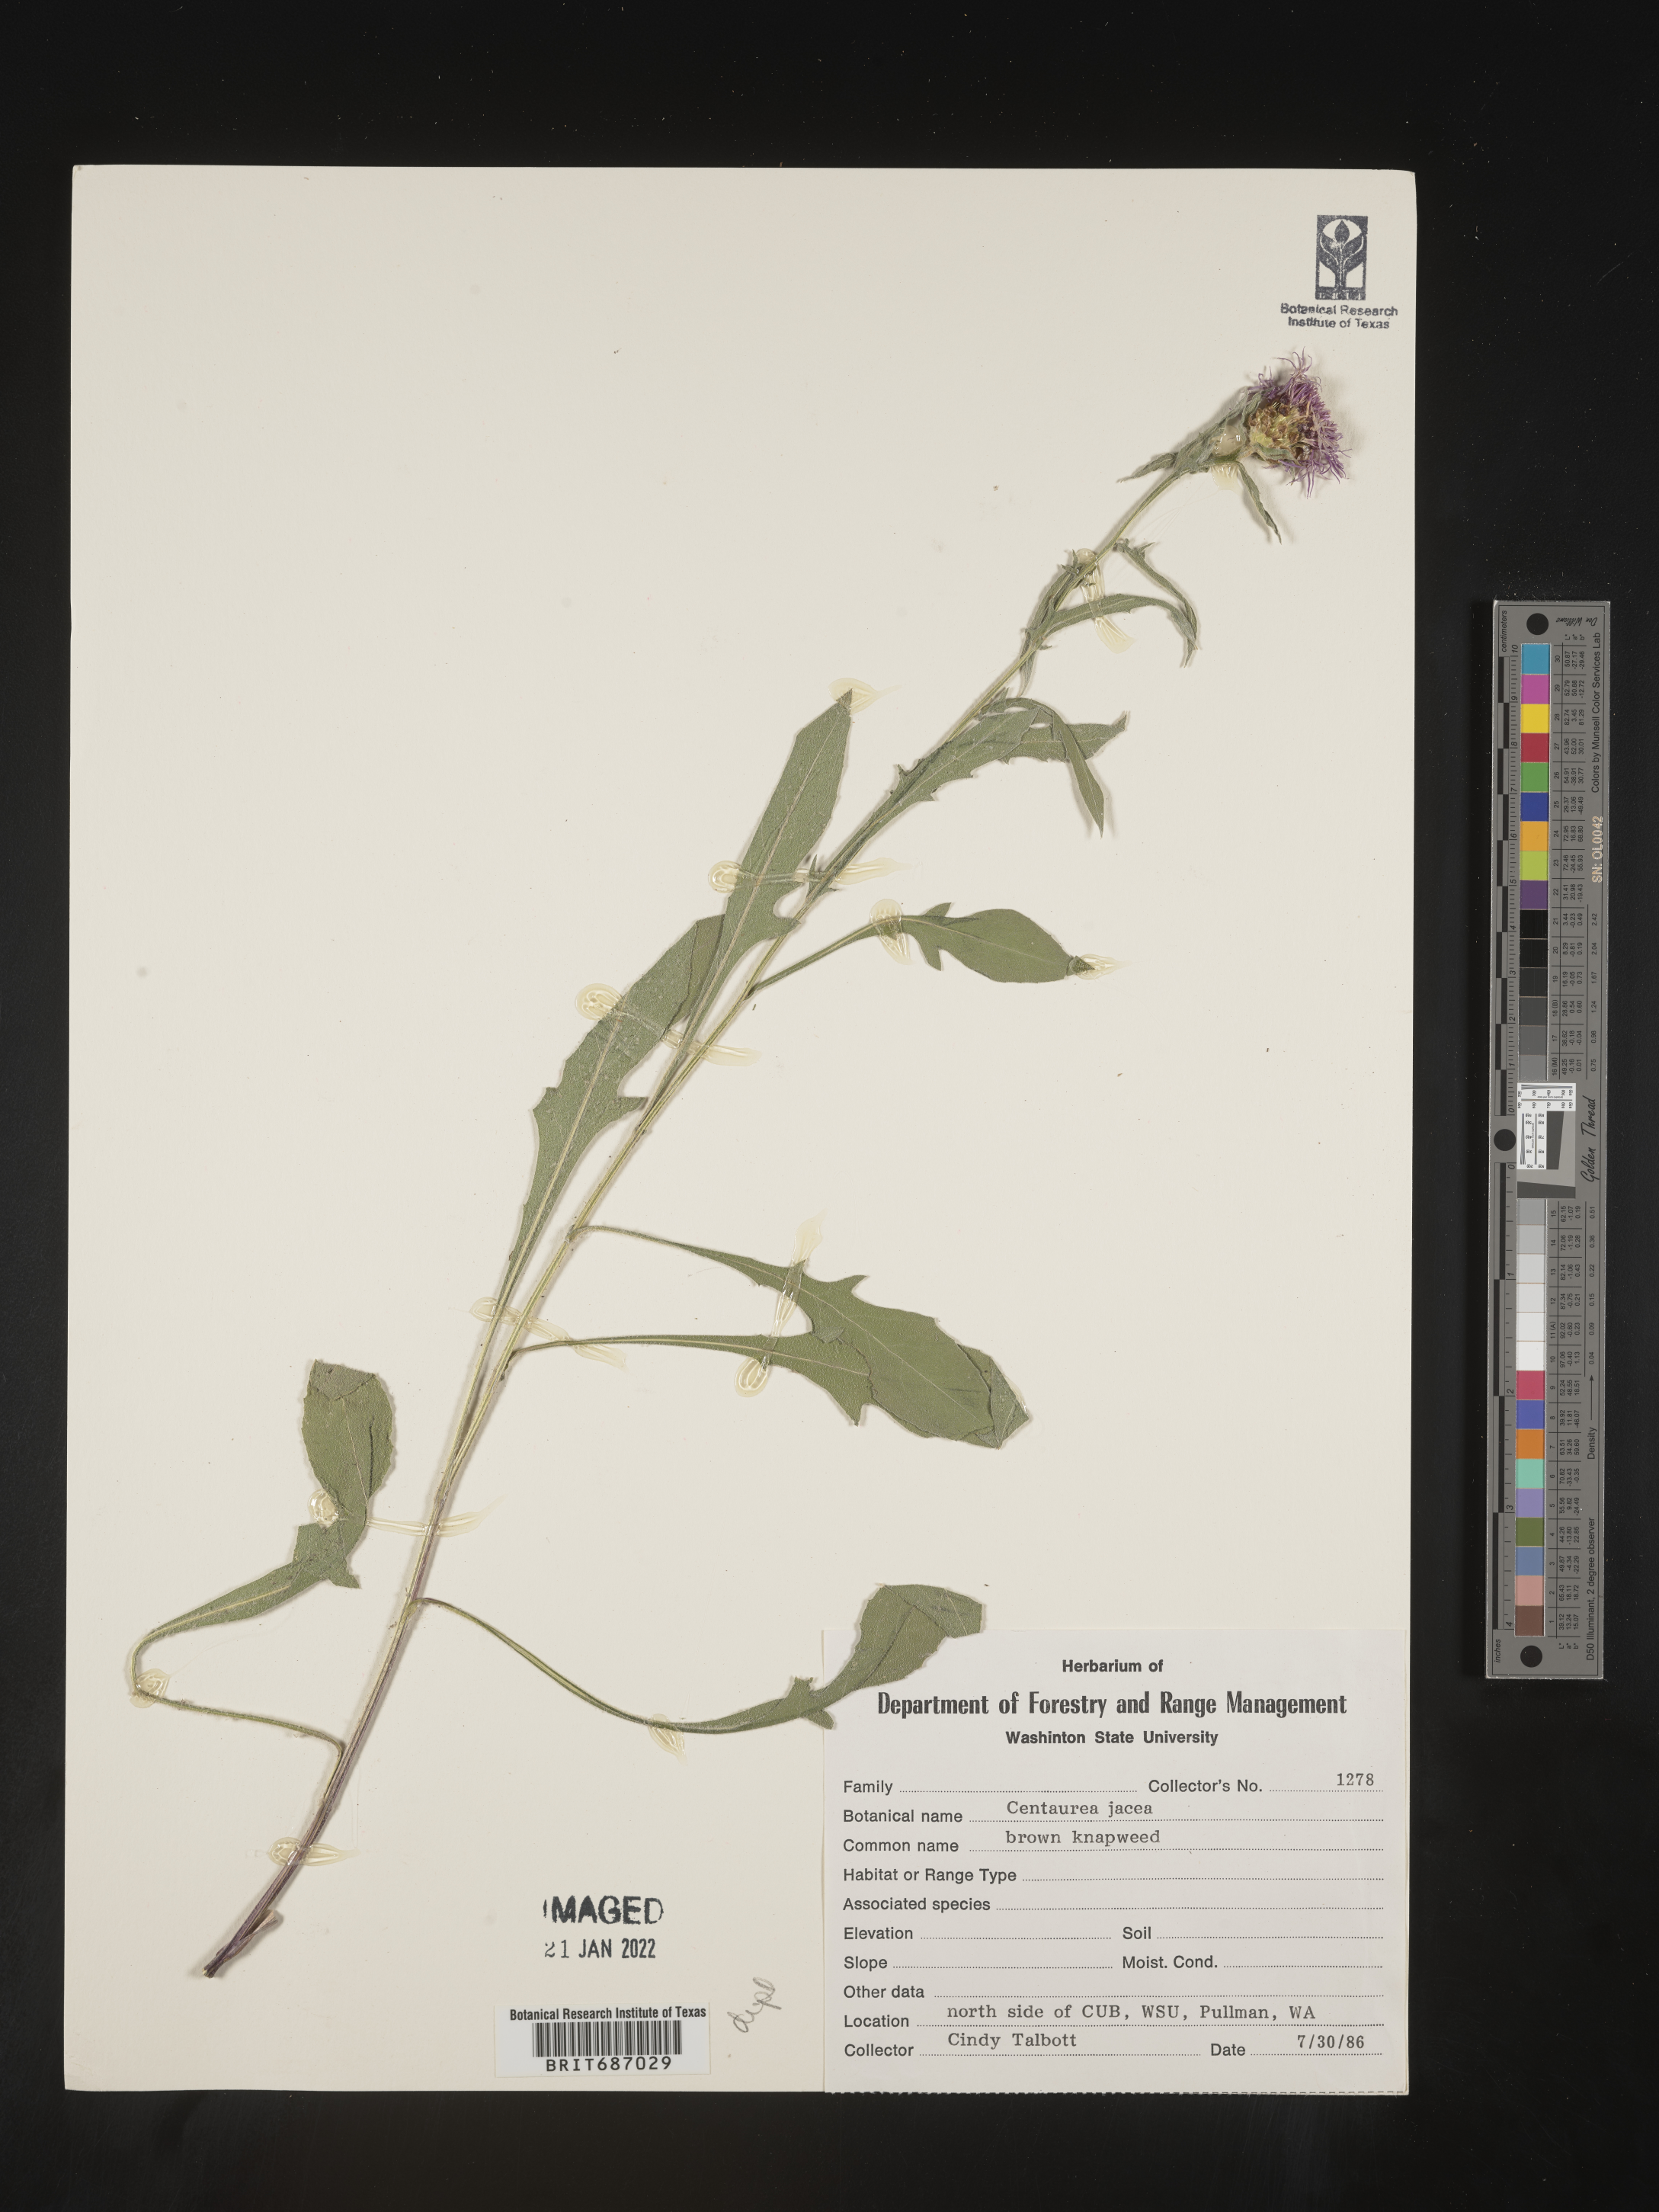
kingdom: Plantae
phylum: Tracheophyta
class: Magnoliopsida
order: Asterales
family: Asteraceae
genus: Centaurea
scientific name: Centaurea jacea
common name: Brown knapweed
